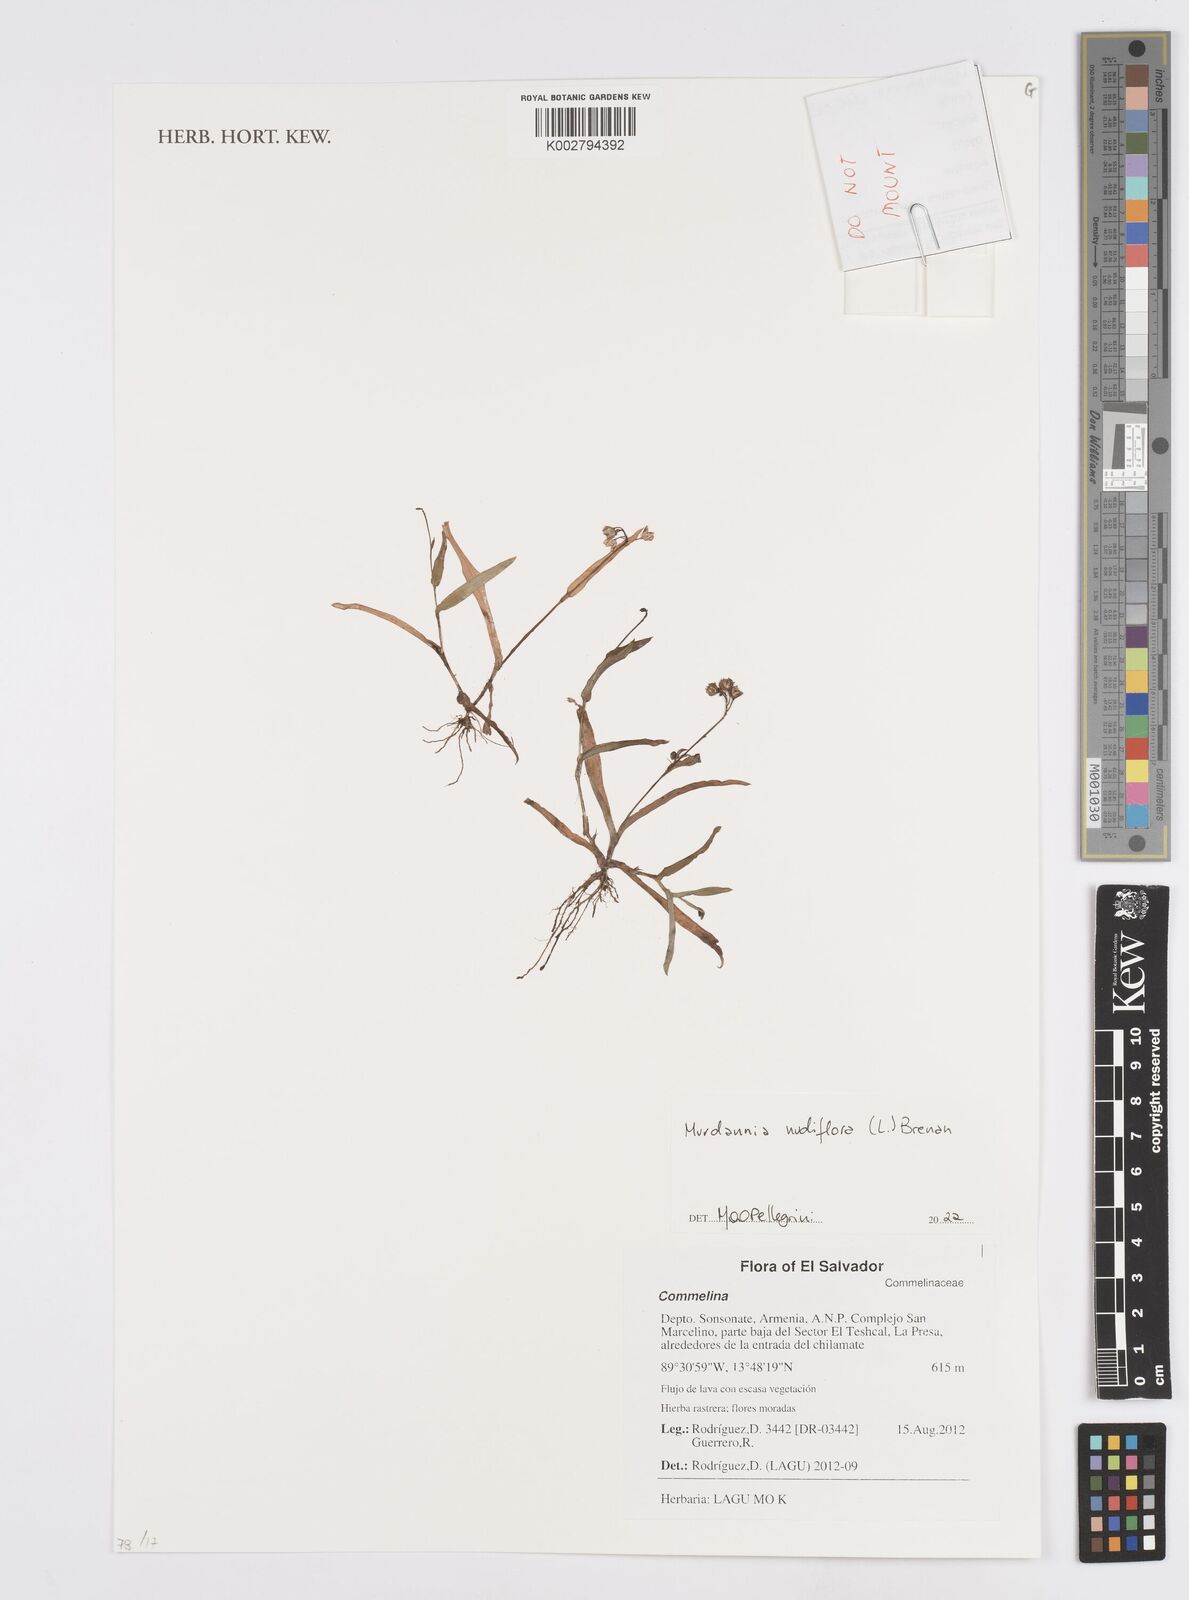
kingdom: Plantae
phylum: Tracheophyta
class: Liliopsida
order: Commelinales
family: Commelinaceae
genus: Murdannia
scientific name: Murdannia nudiflora
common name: Nakedstem dewflower
